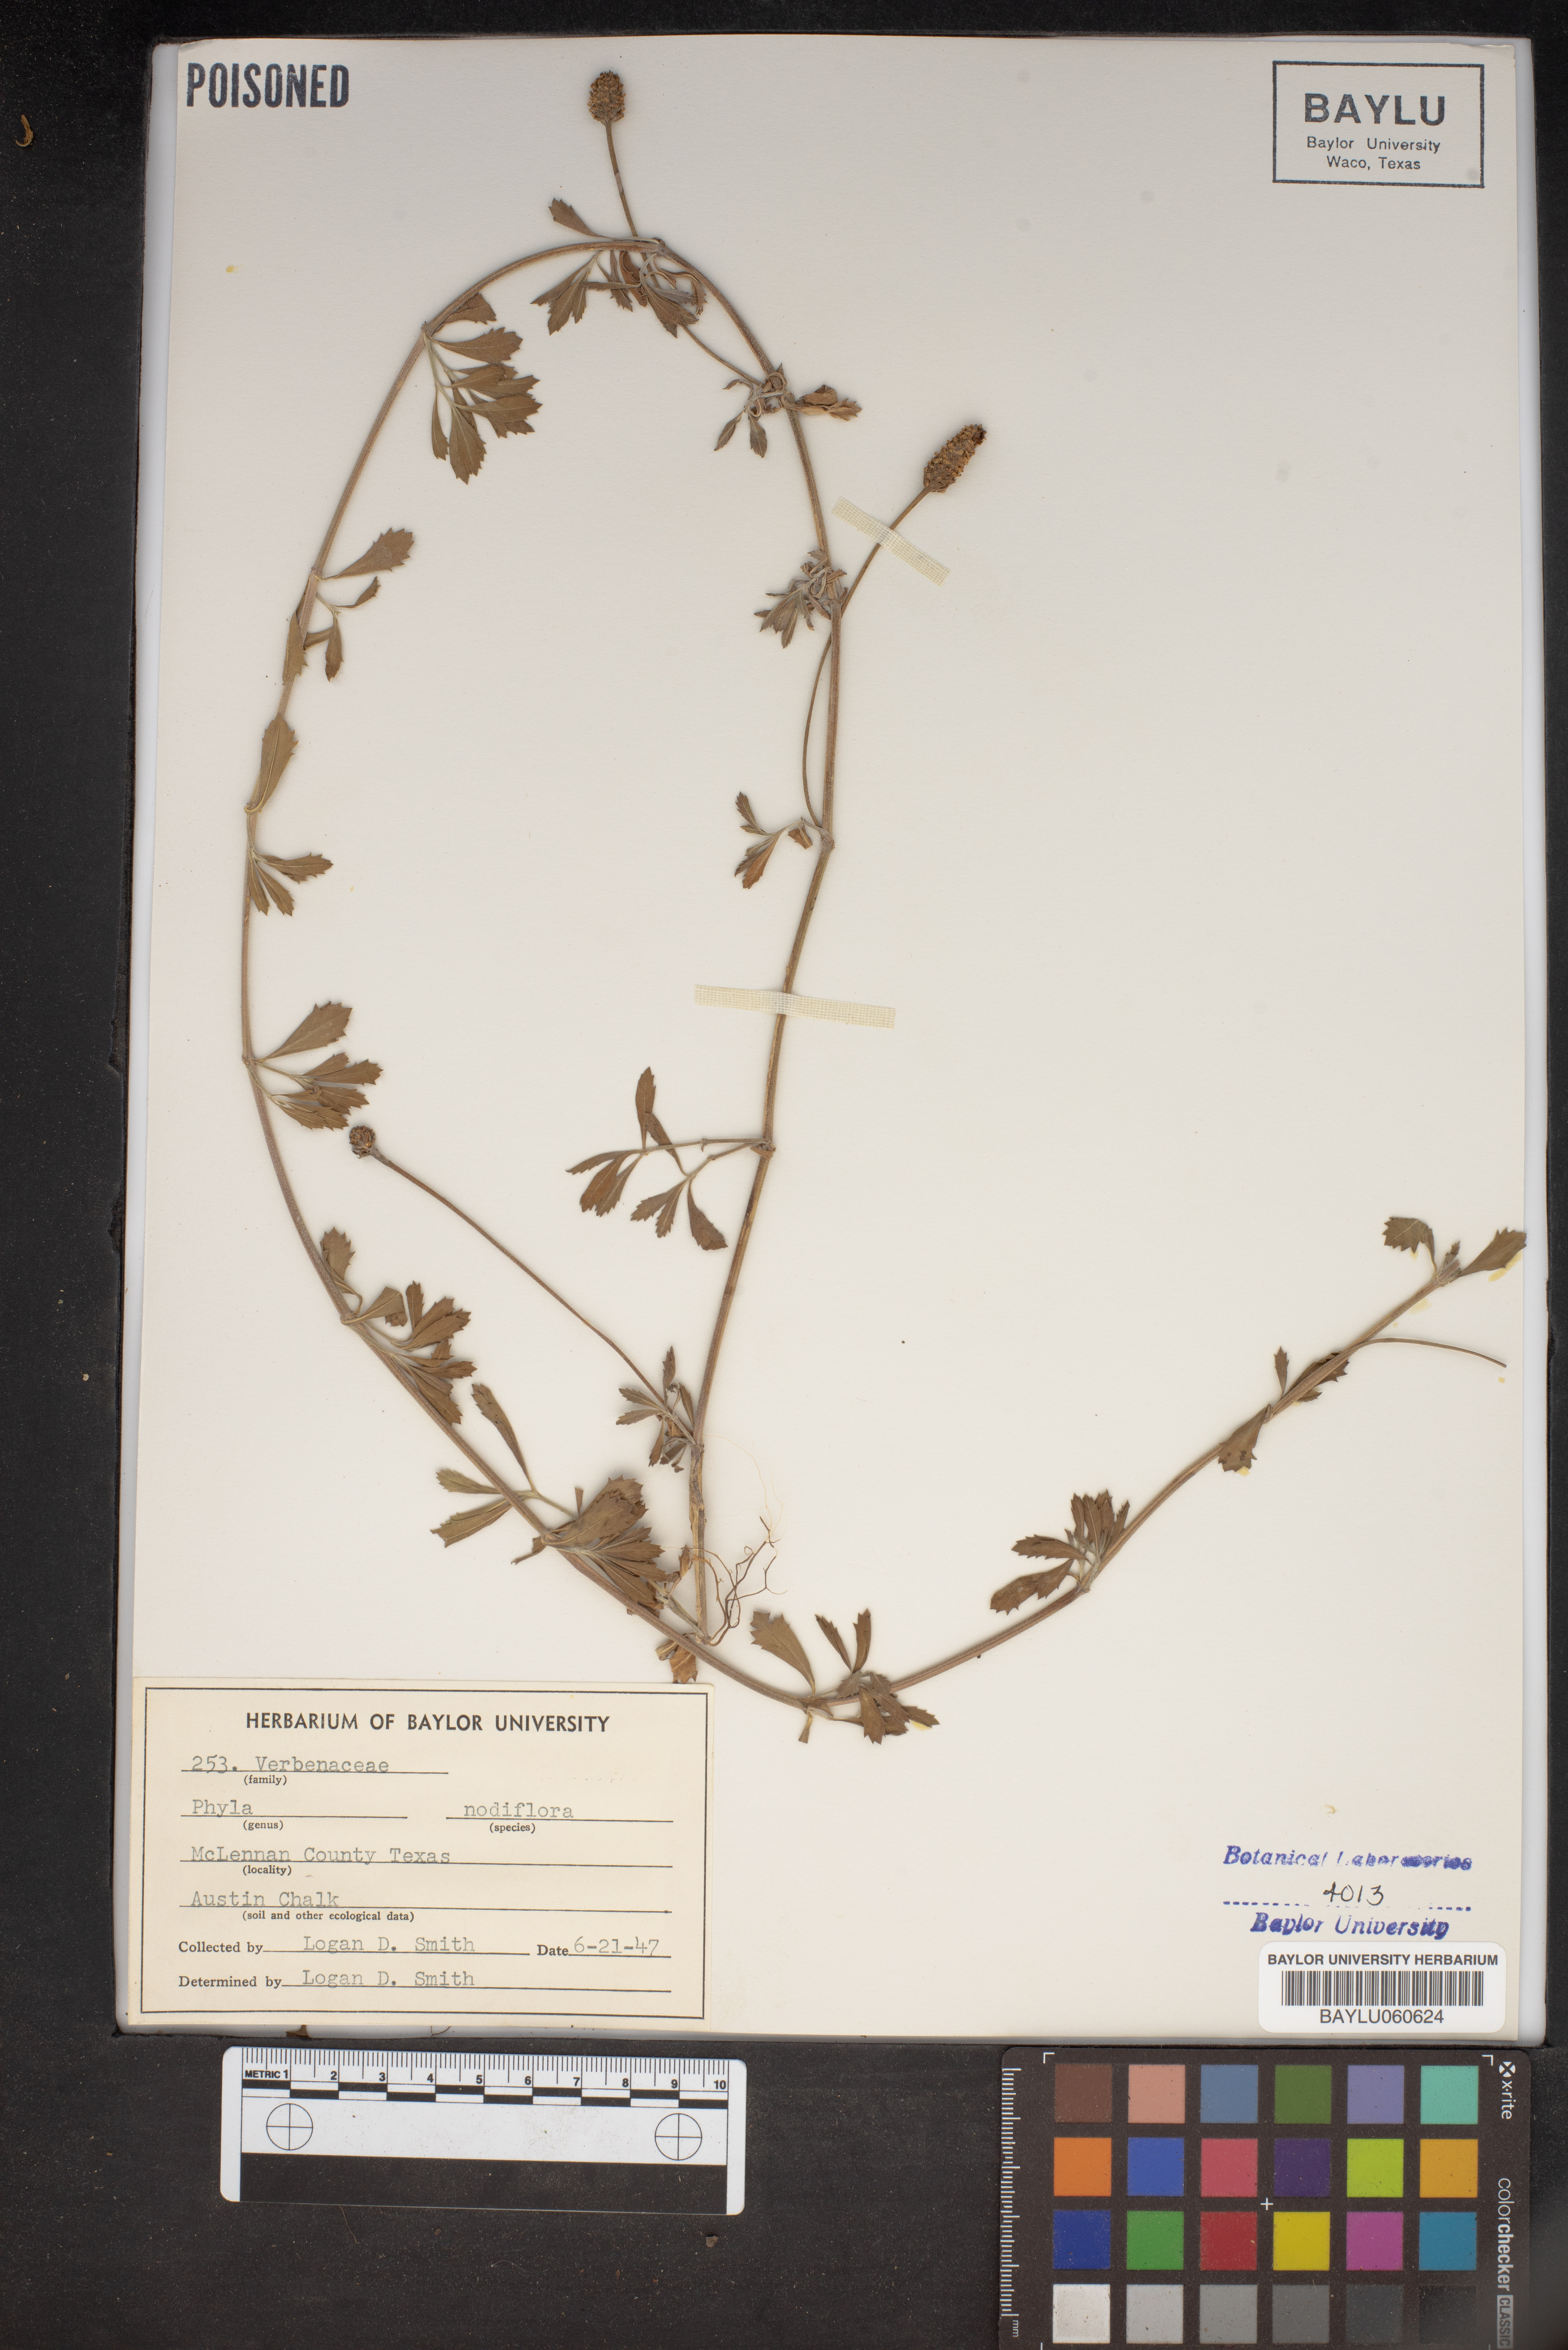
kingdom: Plantae
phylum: Tracheophyta
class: Magnoliopsida
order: Lamiales
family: Verbenaceae
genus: Phyla
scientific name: Phyla nodiflora
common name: Frogfruit
